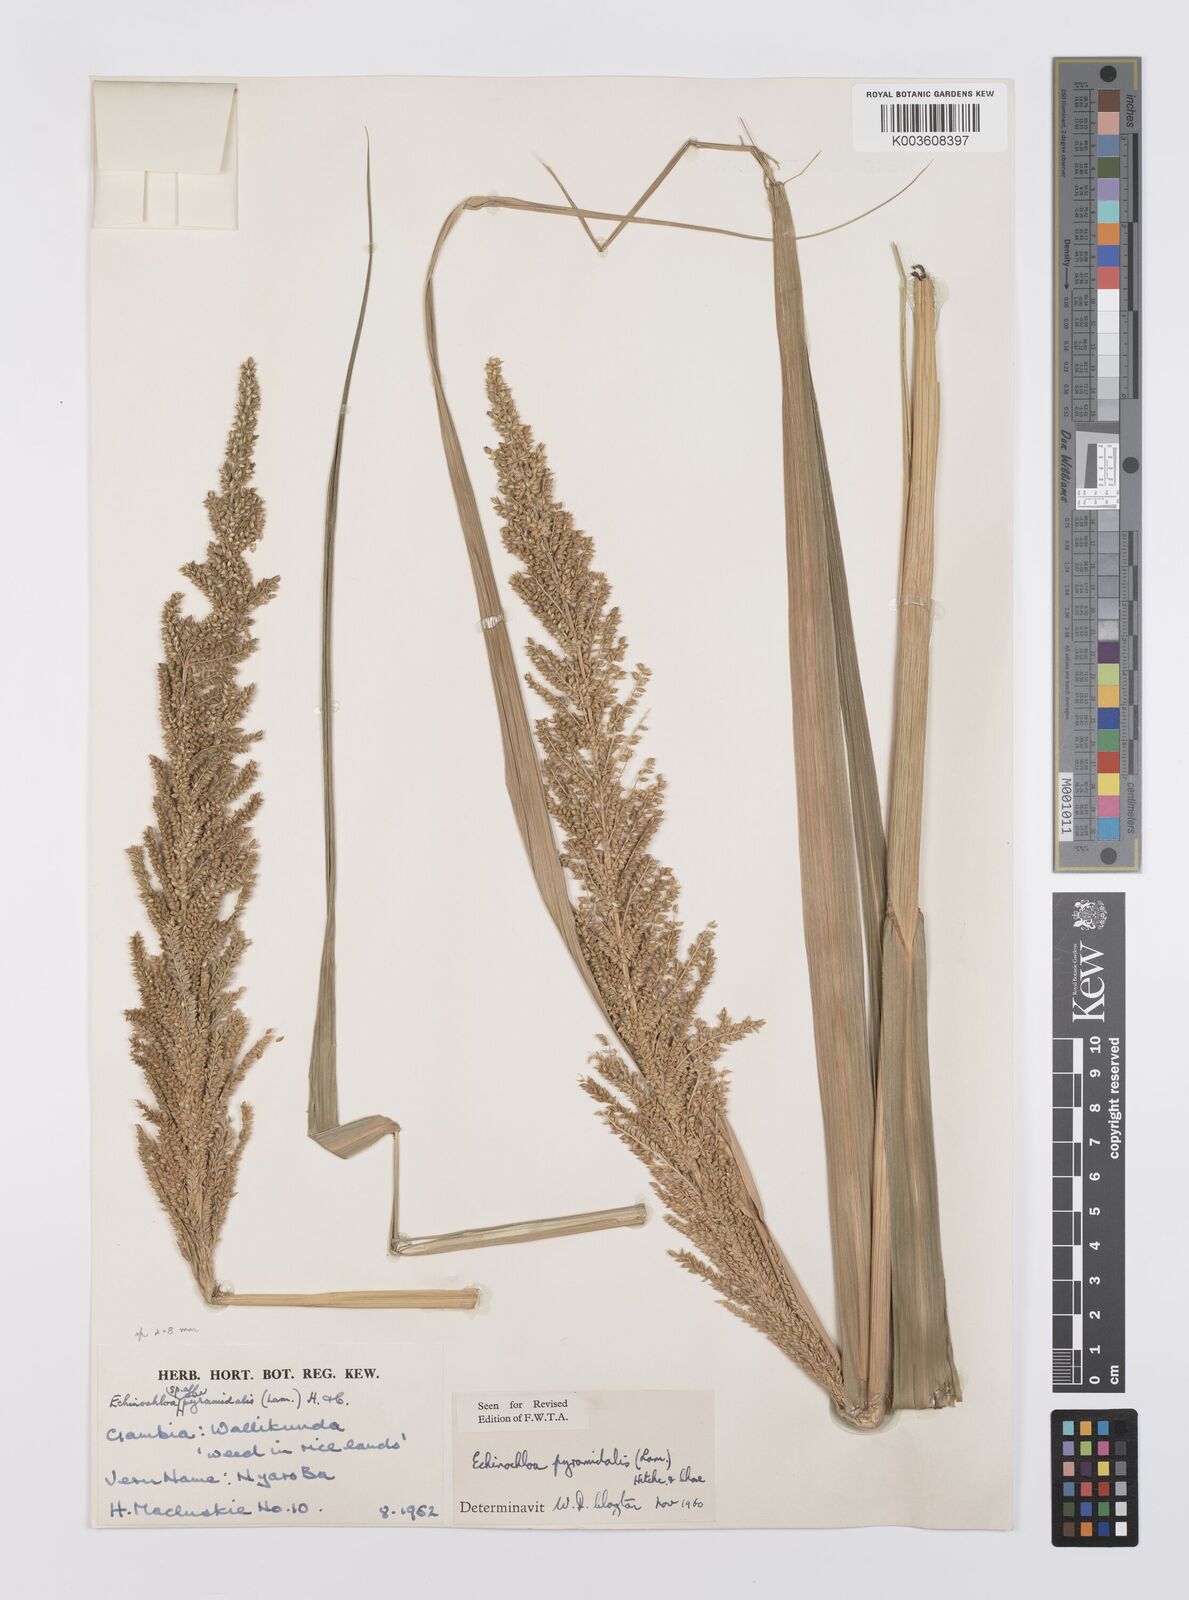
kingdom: Plantae
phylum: Tracheophyta
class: Liliopsida
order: Poales
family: Poaceae
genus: Echinochloa
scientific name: Echinochloa pyramidalis
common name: Antelope grass
